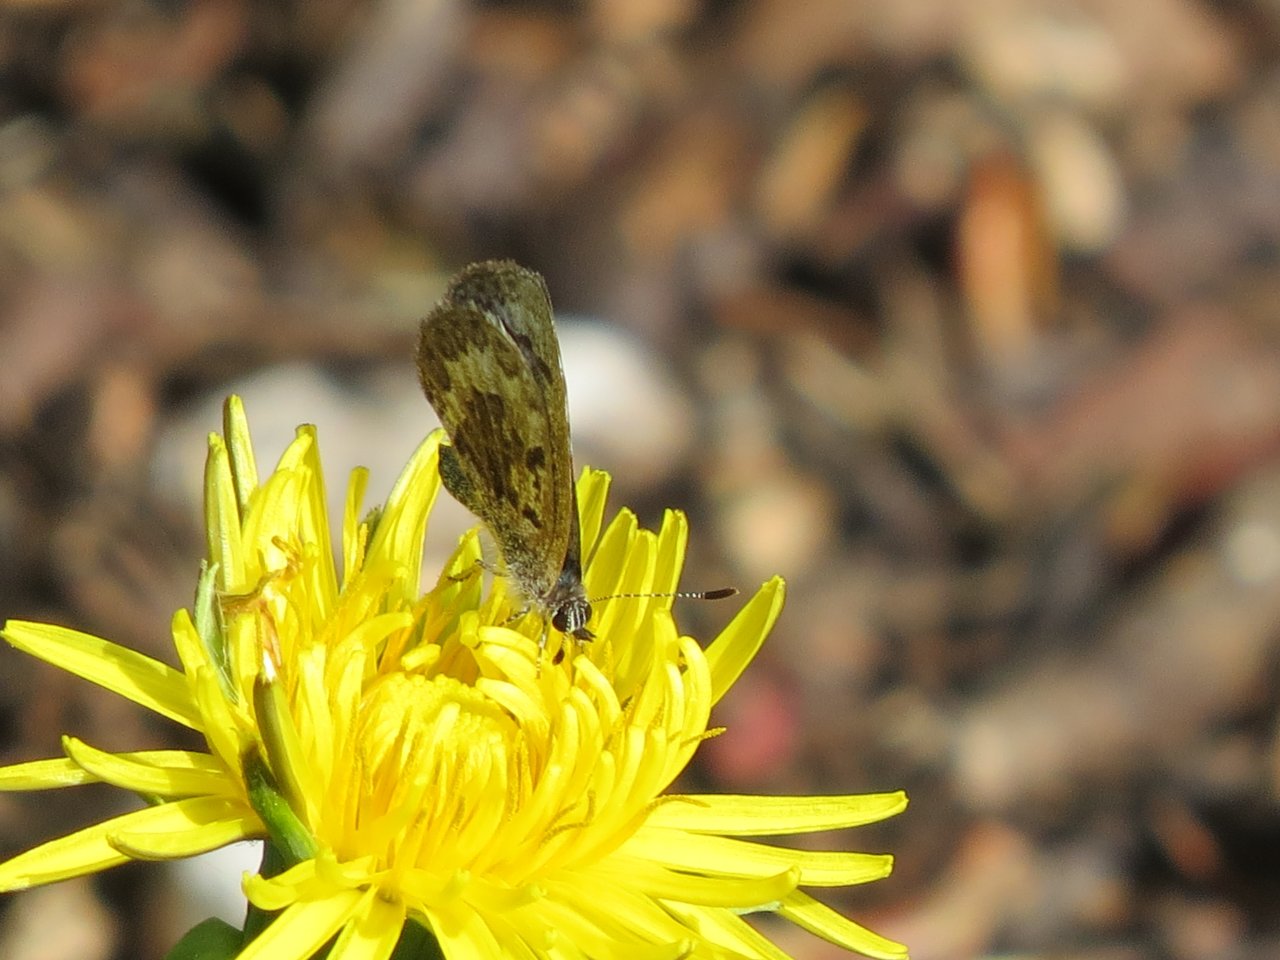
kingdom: Animalia
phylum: Arthropoda
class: Insecta
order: Lepidoptera
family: Lycaenidae
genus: Celastrina
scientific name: Celastrina lucia
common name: Northern Spring Azure
